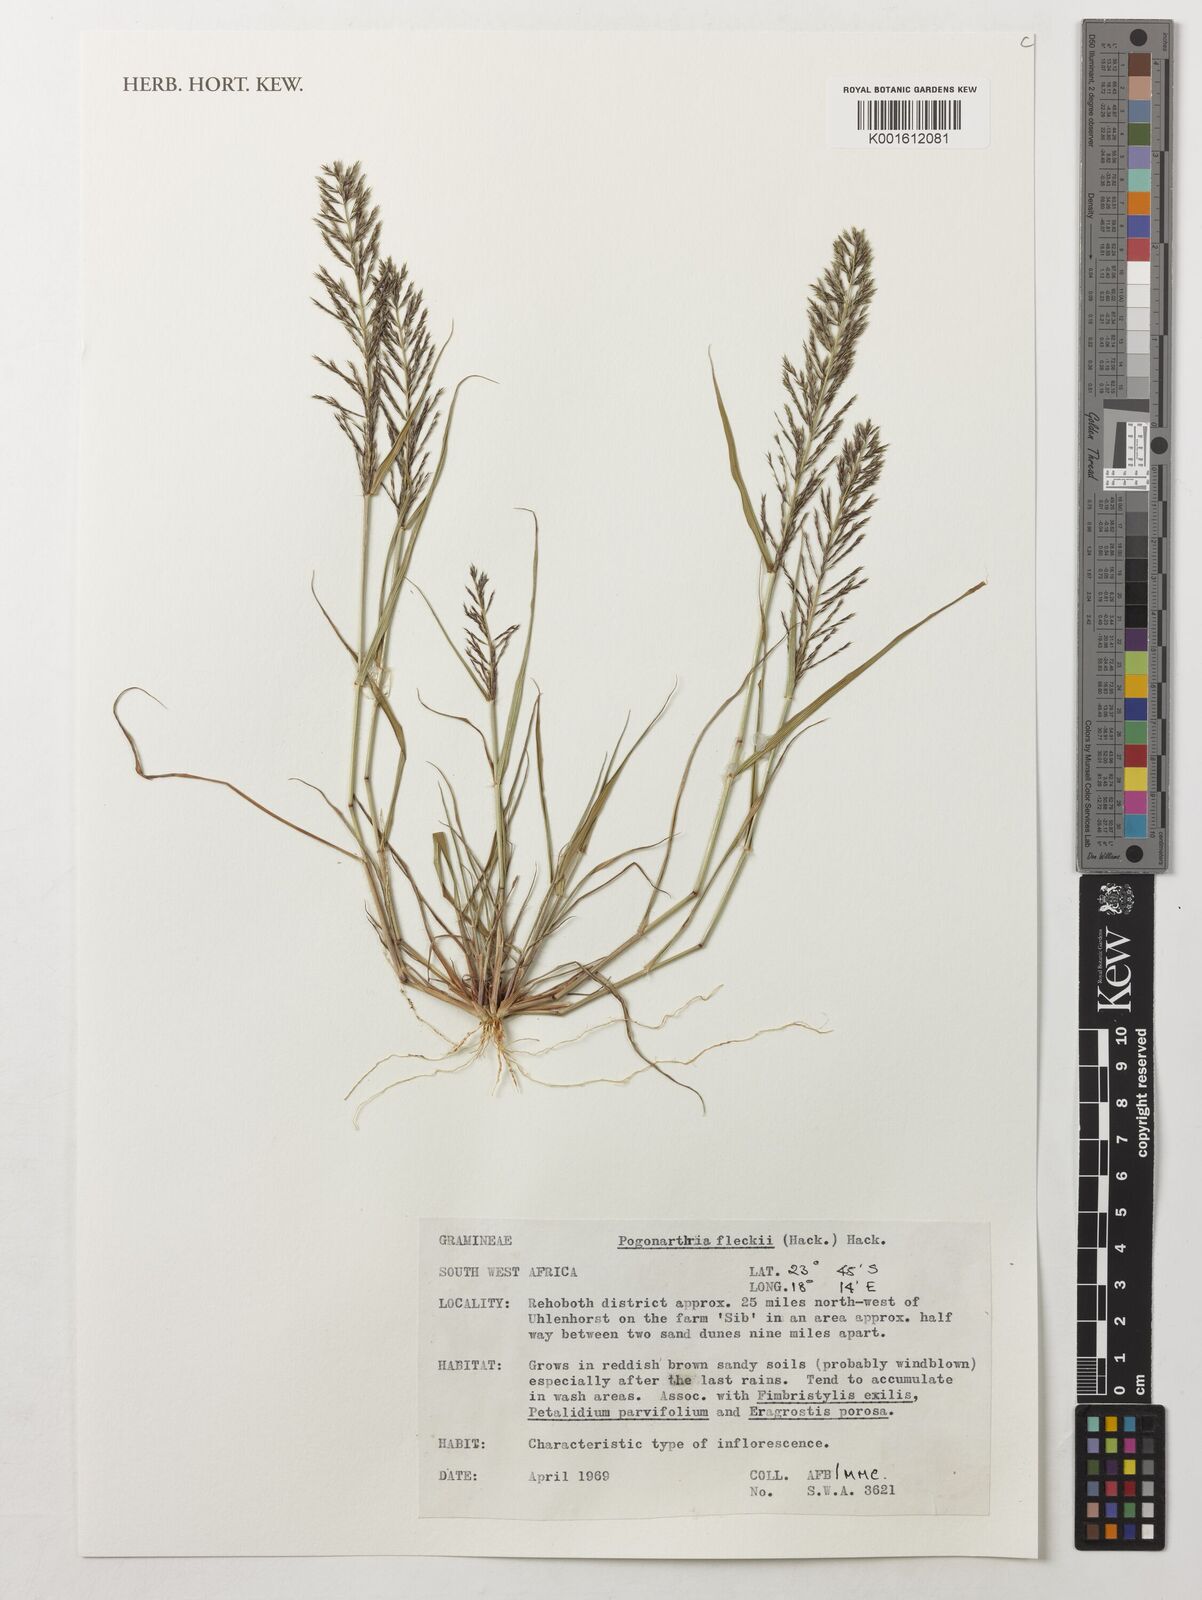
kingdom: Plantae
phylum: Tracheophyta
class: Liliopsida
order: Poales
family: Poaceae
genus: Pogonarthria
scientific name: Pogonarthria fleckii
